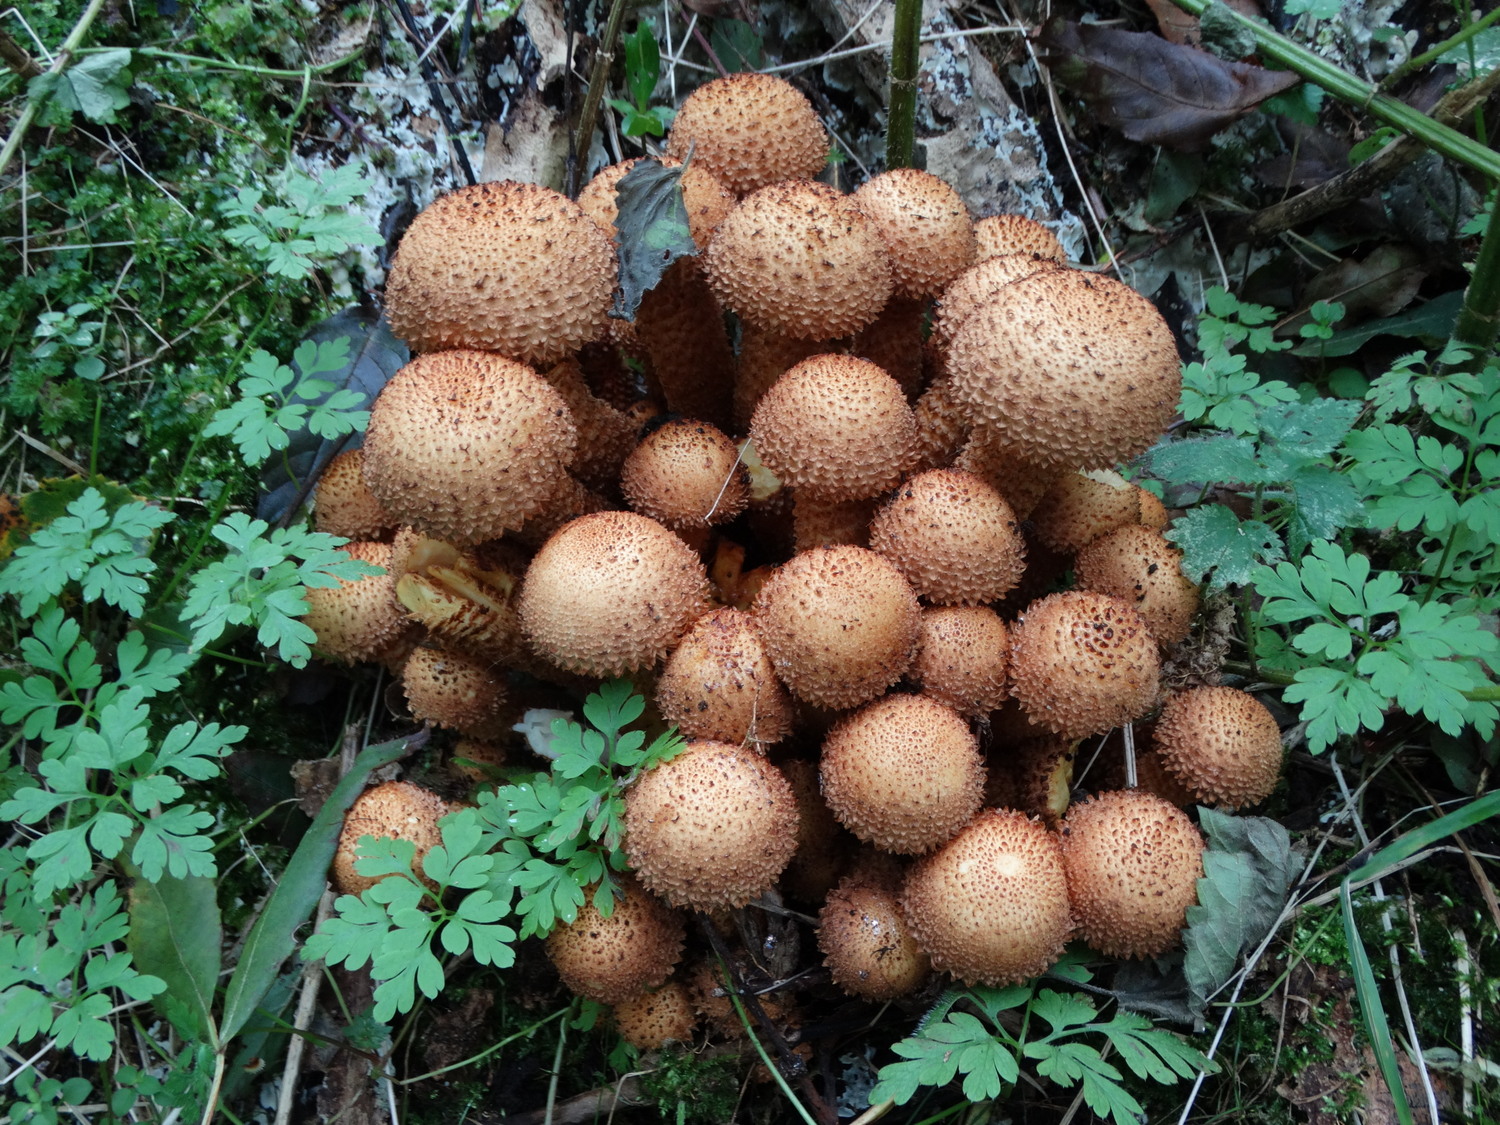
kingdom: Fungi
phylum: Basidiomycota
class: Agaricomycetes
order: Agaricales
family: Strophariaceae
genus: Pholiota
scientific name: Pholiota squarrosa
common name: krumskællet skælhat
